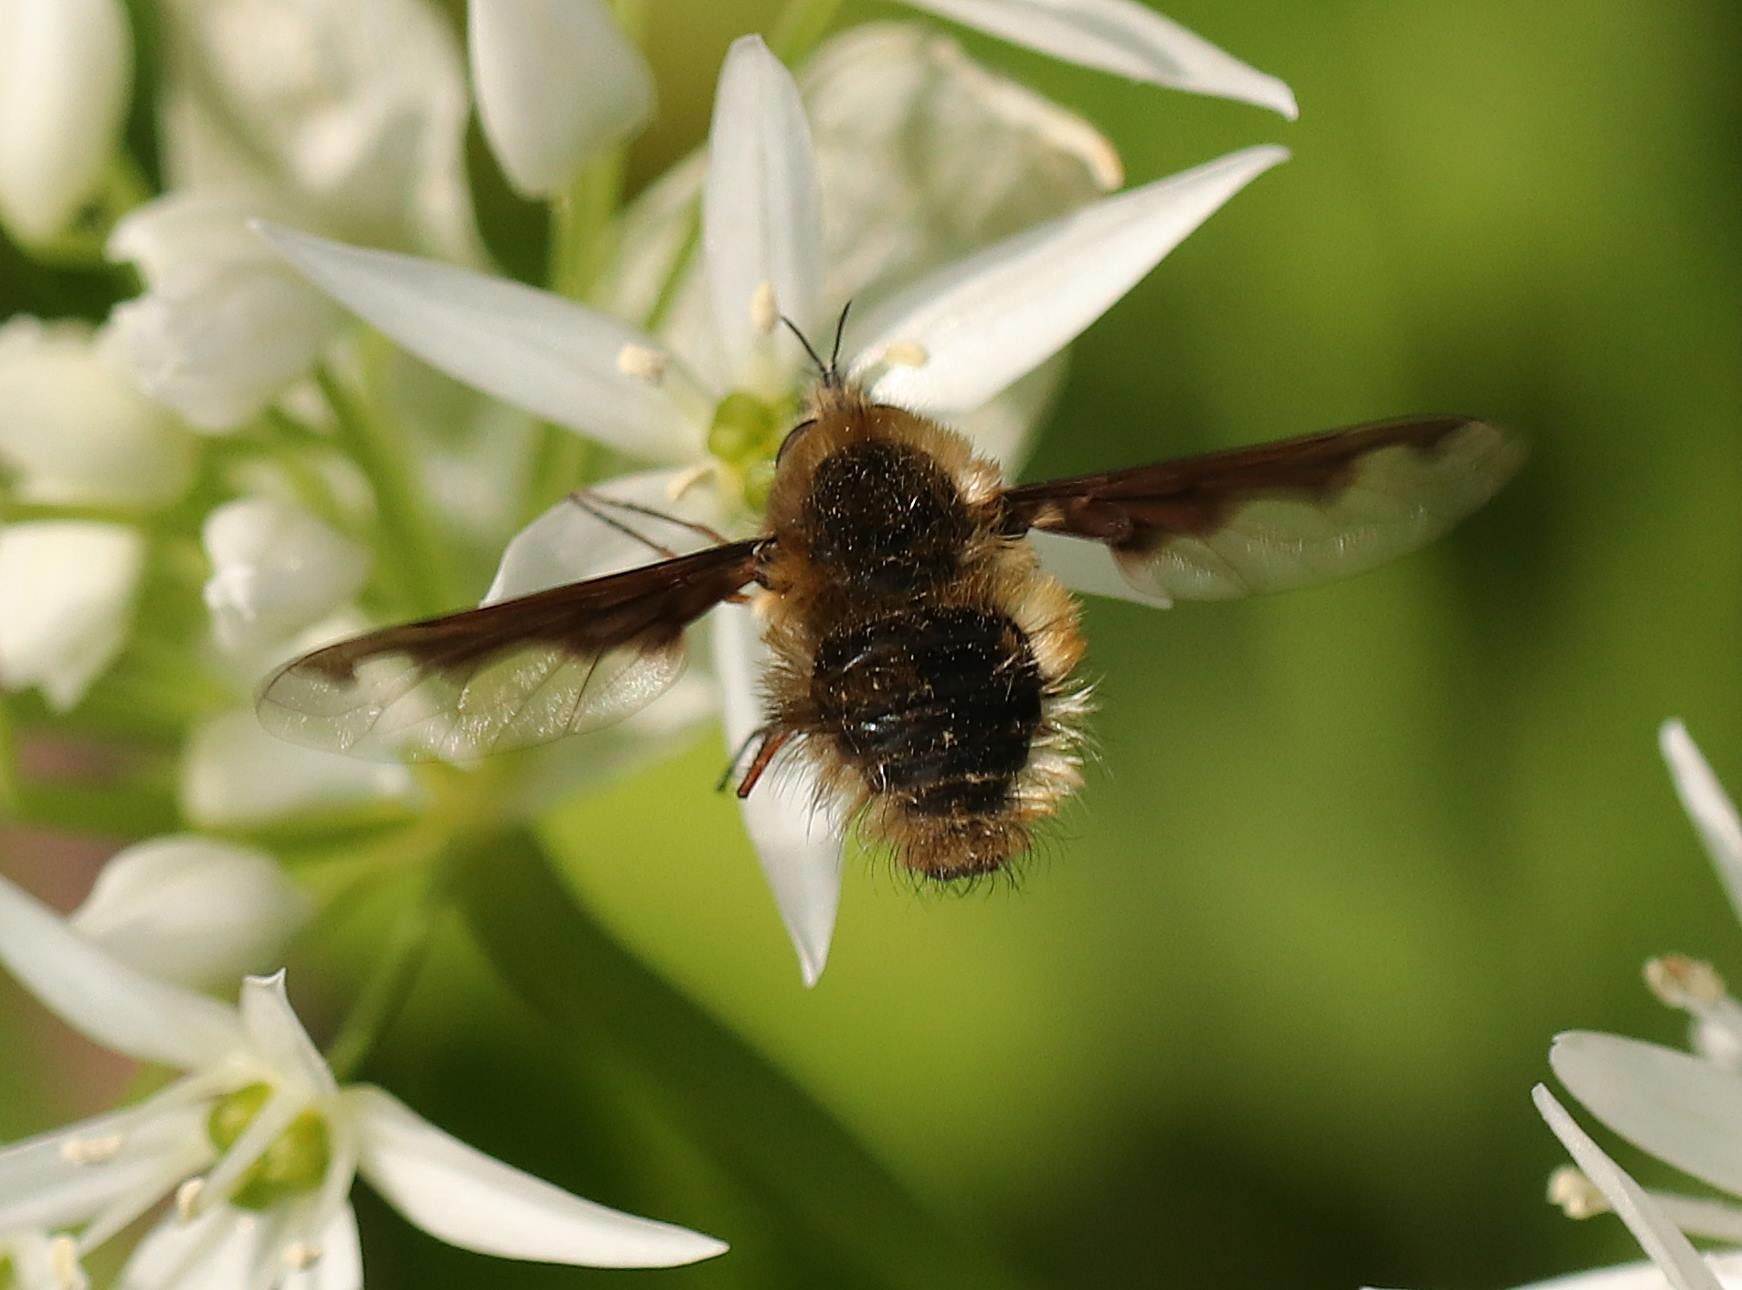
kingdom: Animalia
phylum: Arthropoda
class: Insecta
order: Diptera
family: Bombyliidae
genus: Bombylius
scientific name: Bombylius major
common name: Stor humleflue
